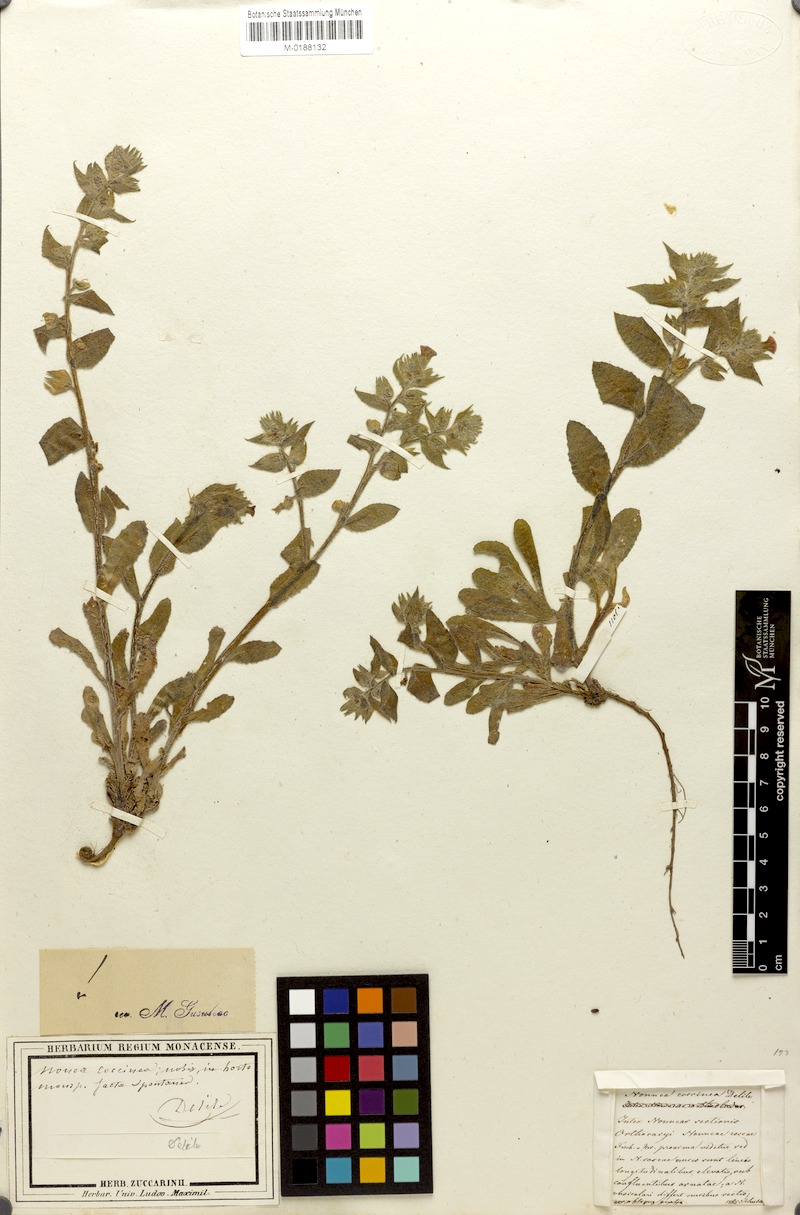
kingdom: Plantae
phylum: Tracheophyta
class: Magnoliopsida
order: Boraginales
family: Boraginaceae
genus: Nonea
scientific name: Nonea rosea
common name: Pink nonea
